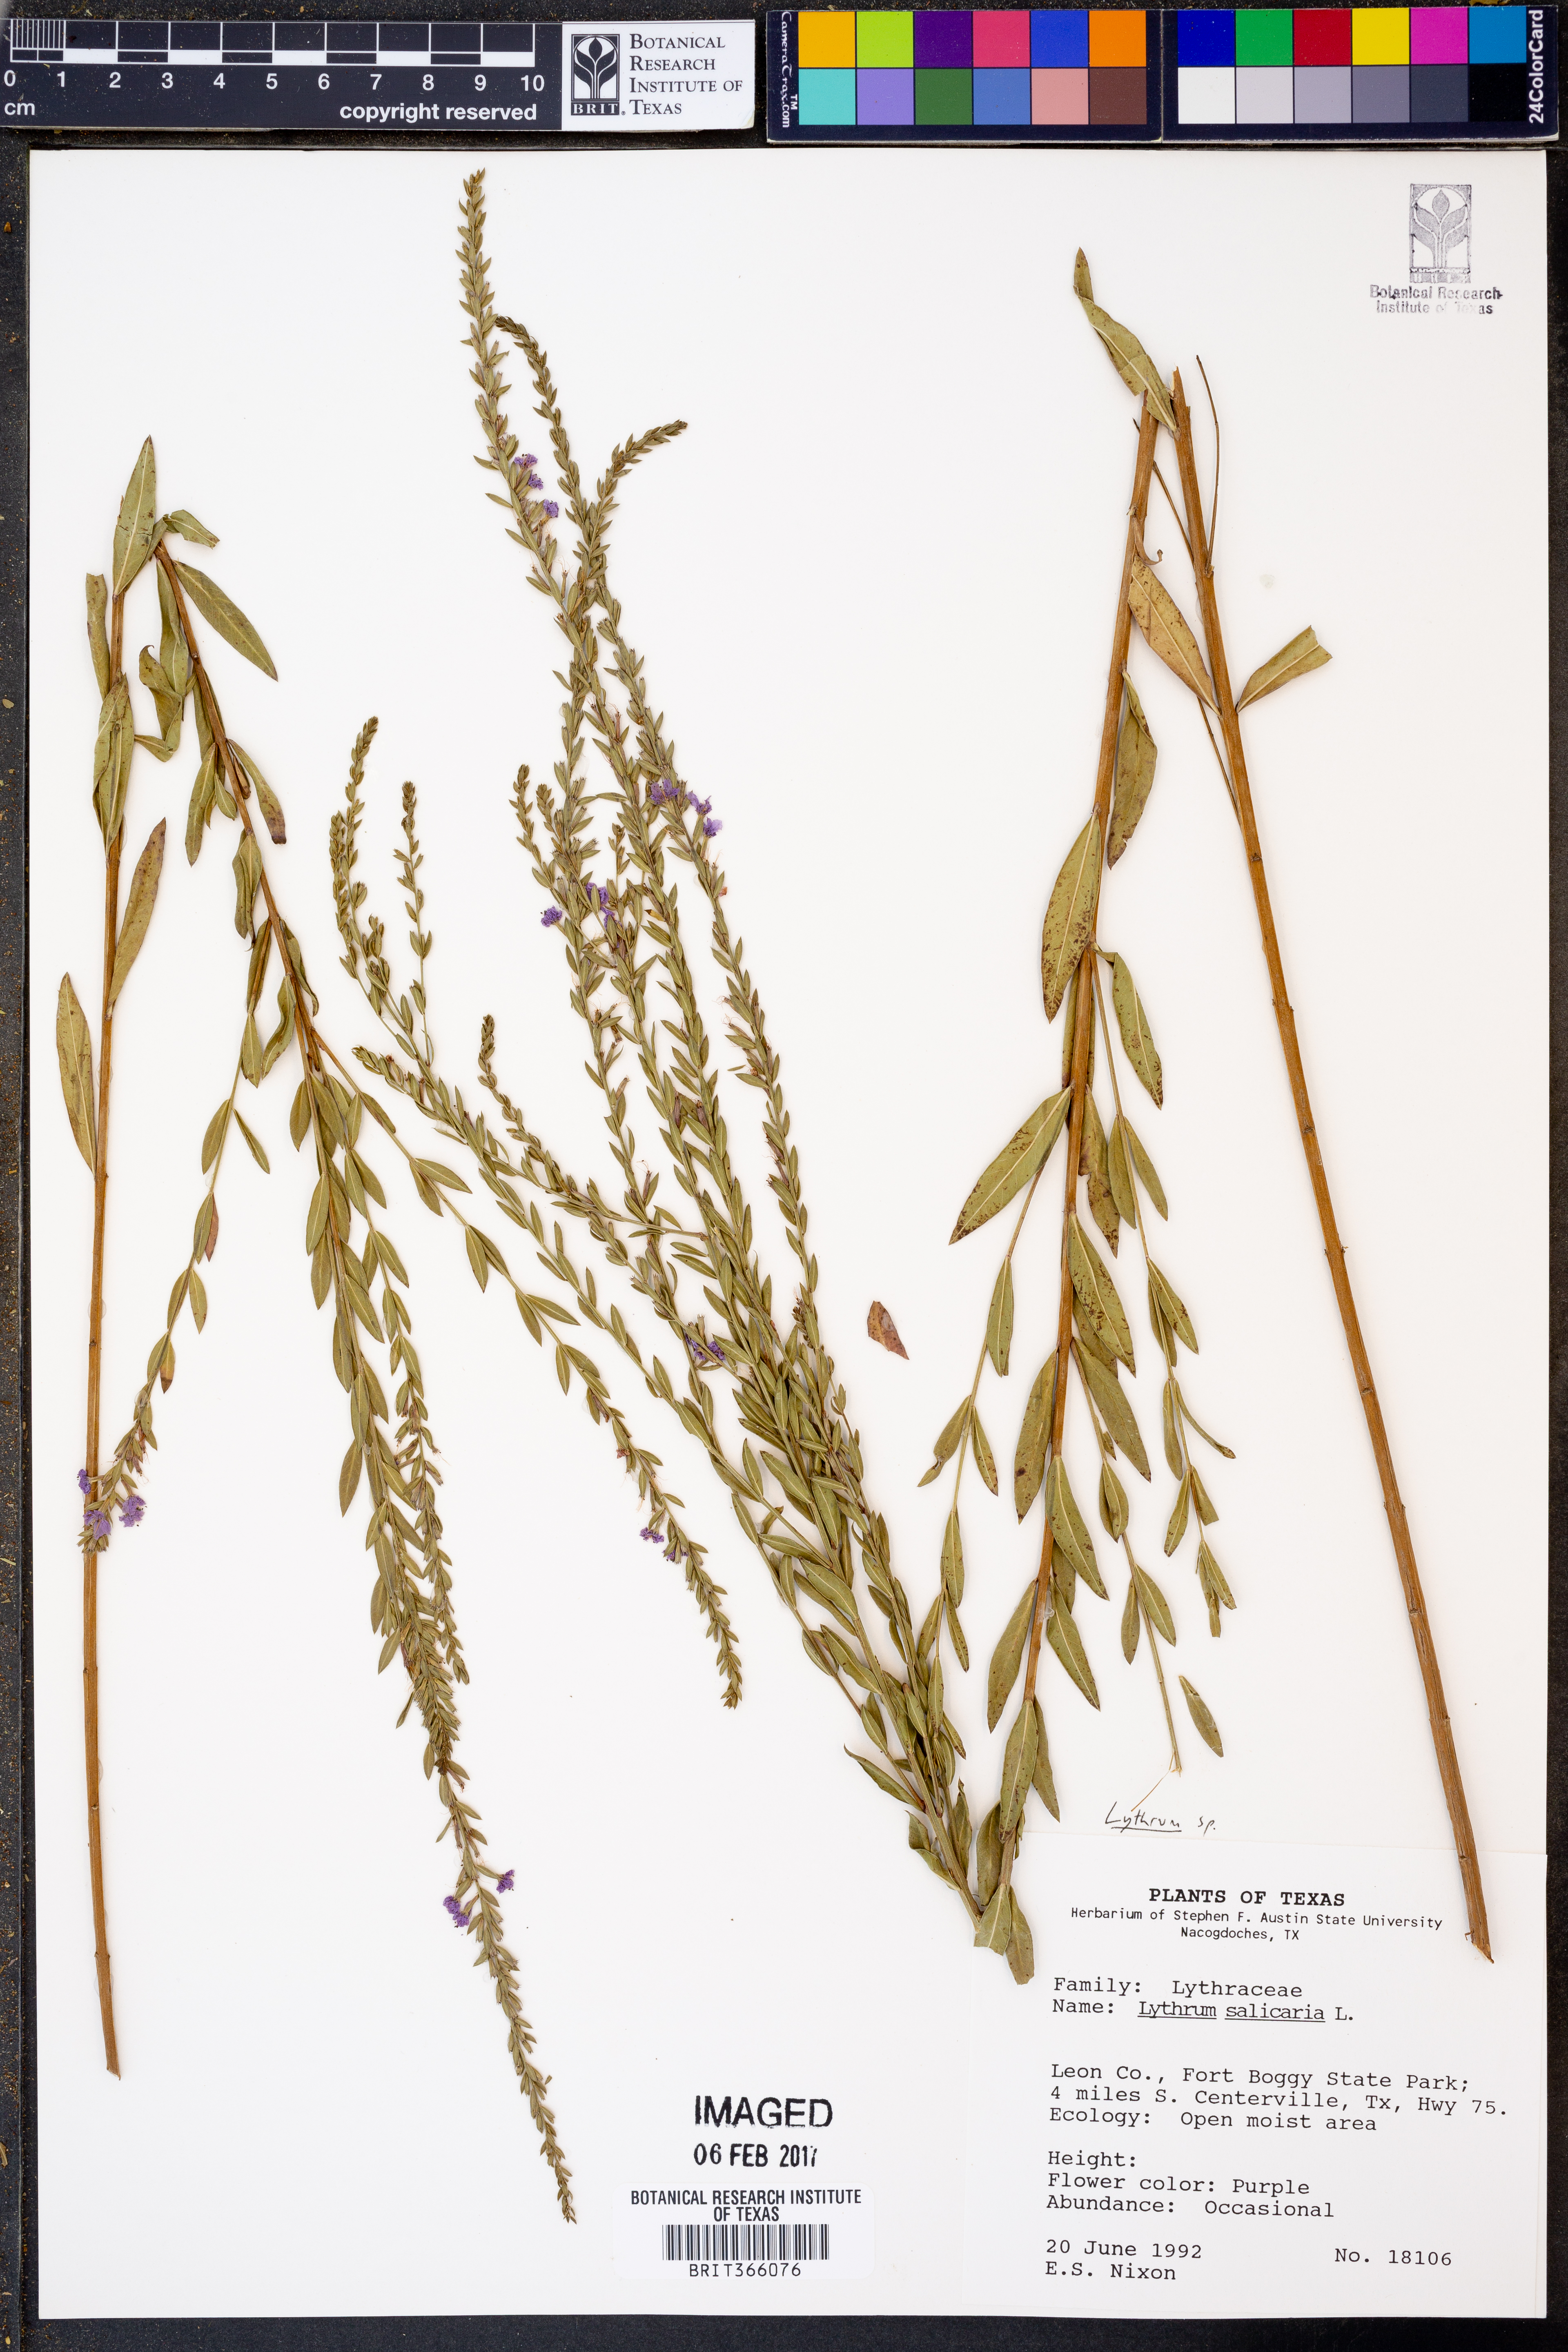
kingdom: Plantae
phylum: Tracheophyta
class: Magnoliopsida
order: Myrtales
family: Lythraceae
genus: Lythrum
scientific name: Lythrum
